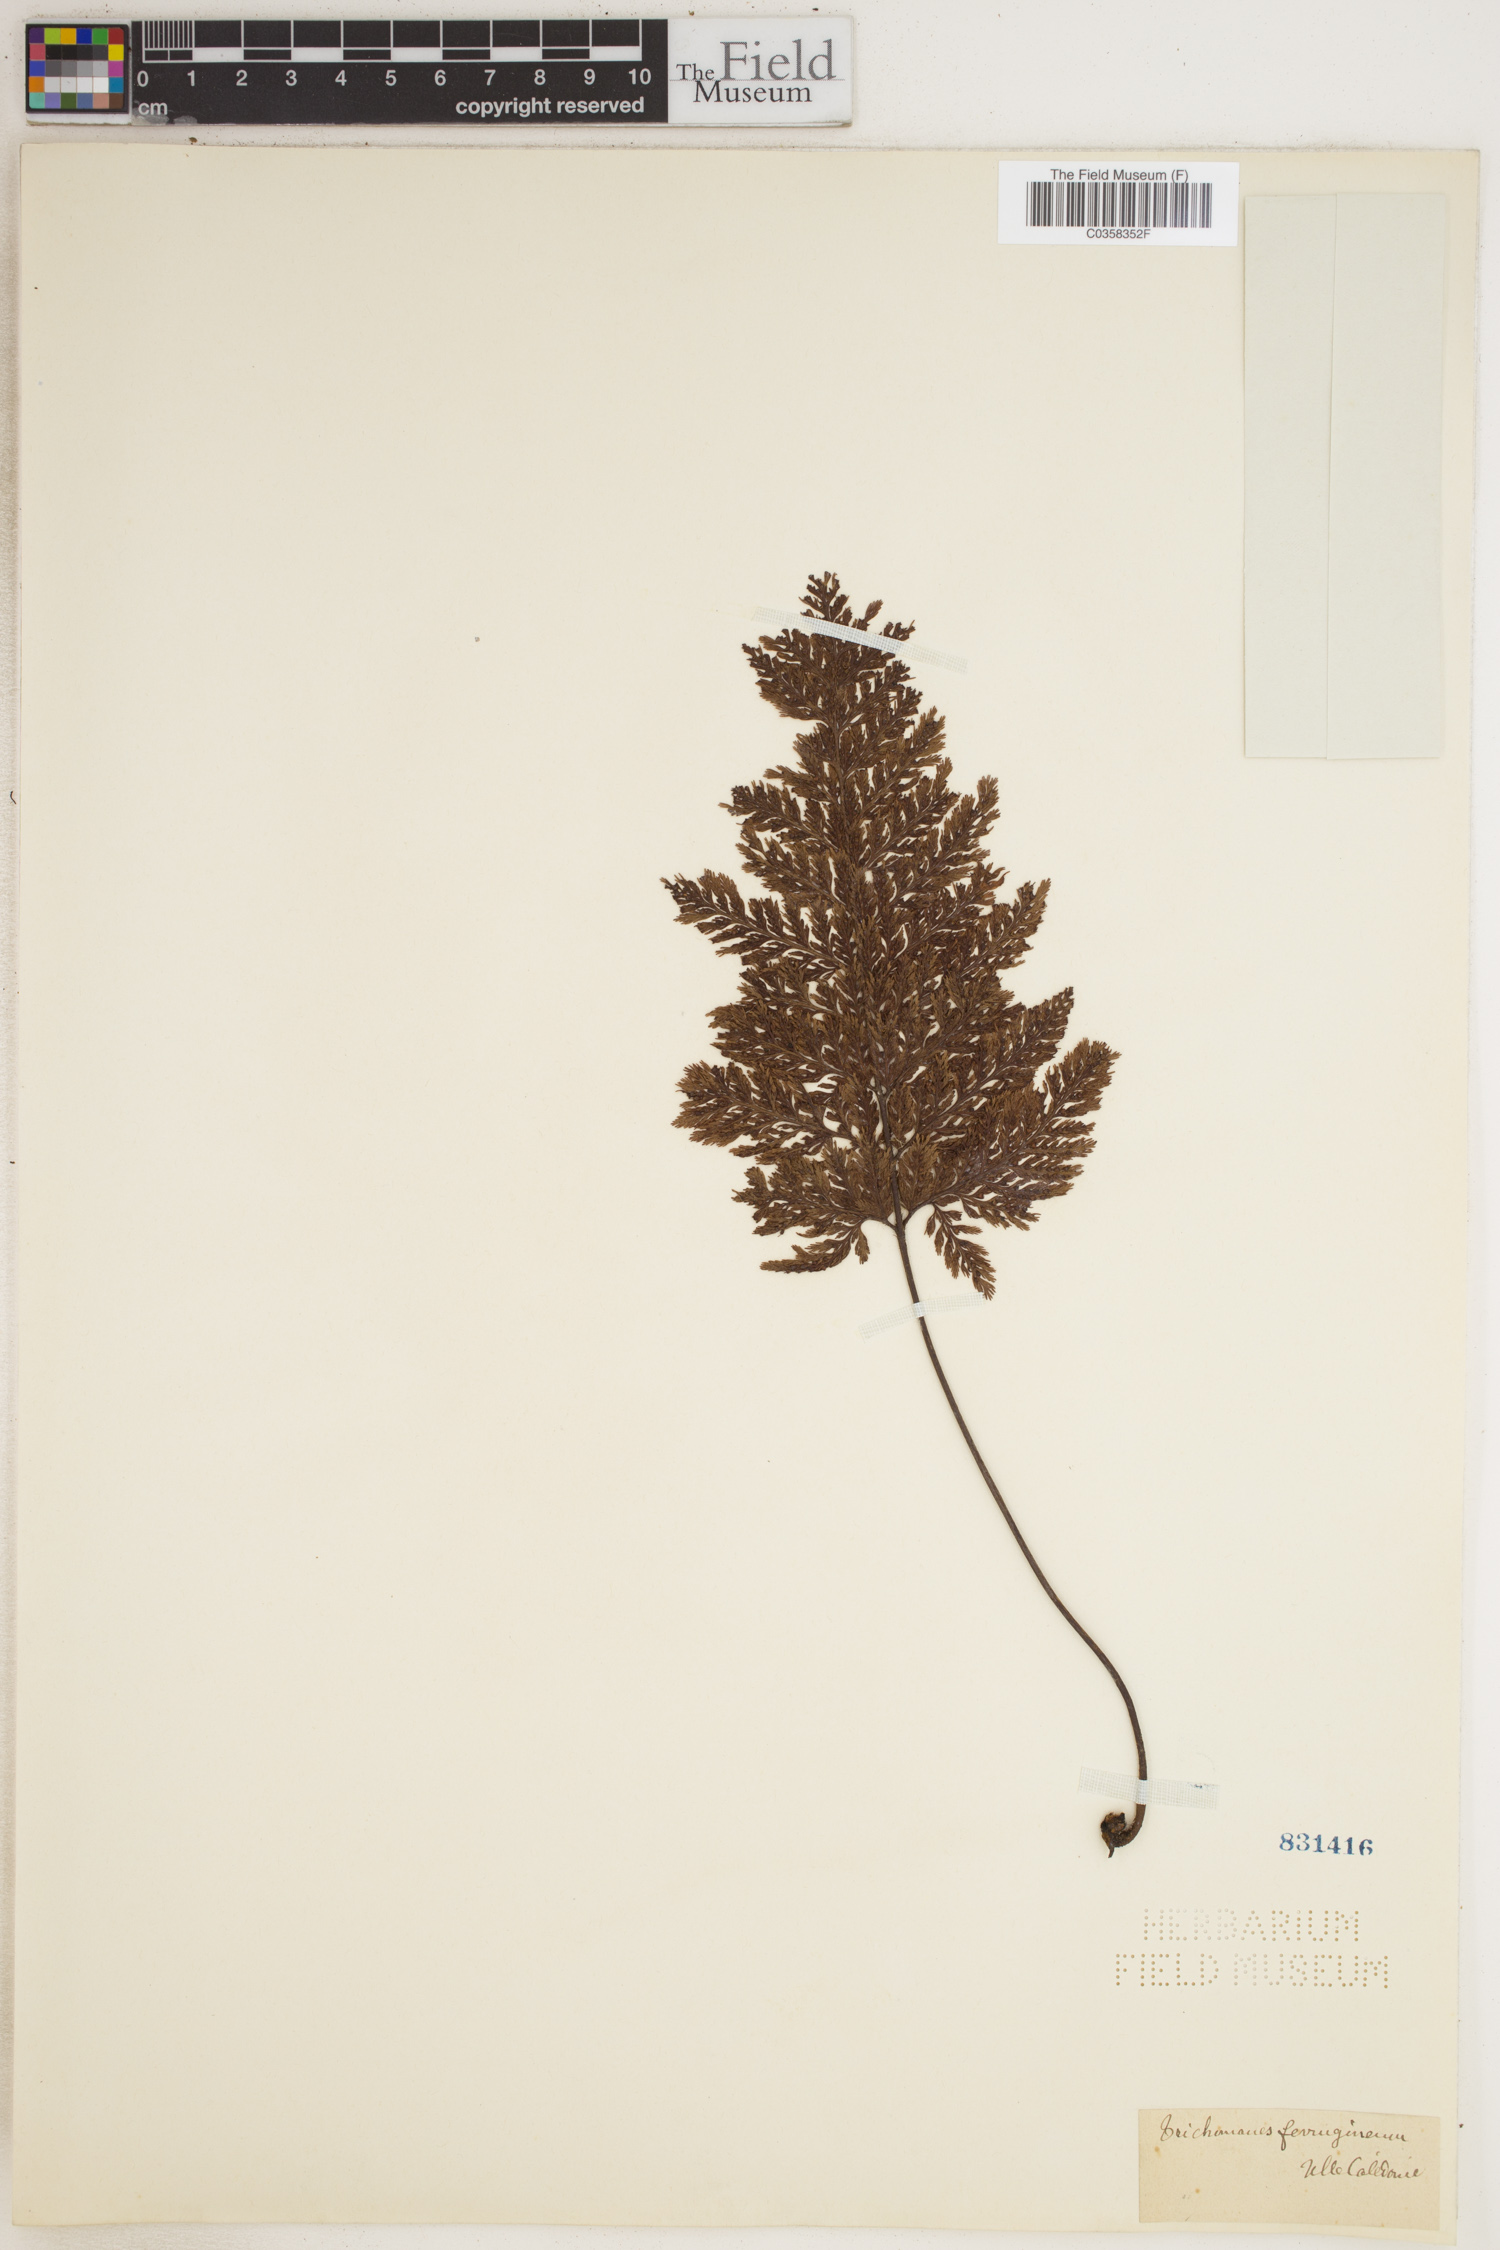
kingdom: Plantae
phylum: Tracheophyta
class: Polypodiopsida
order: Hymenophyllales
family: Hymenophyllaceae
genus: Abrodictyum
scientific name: Abrodictyum dentatum
